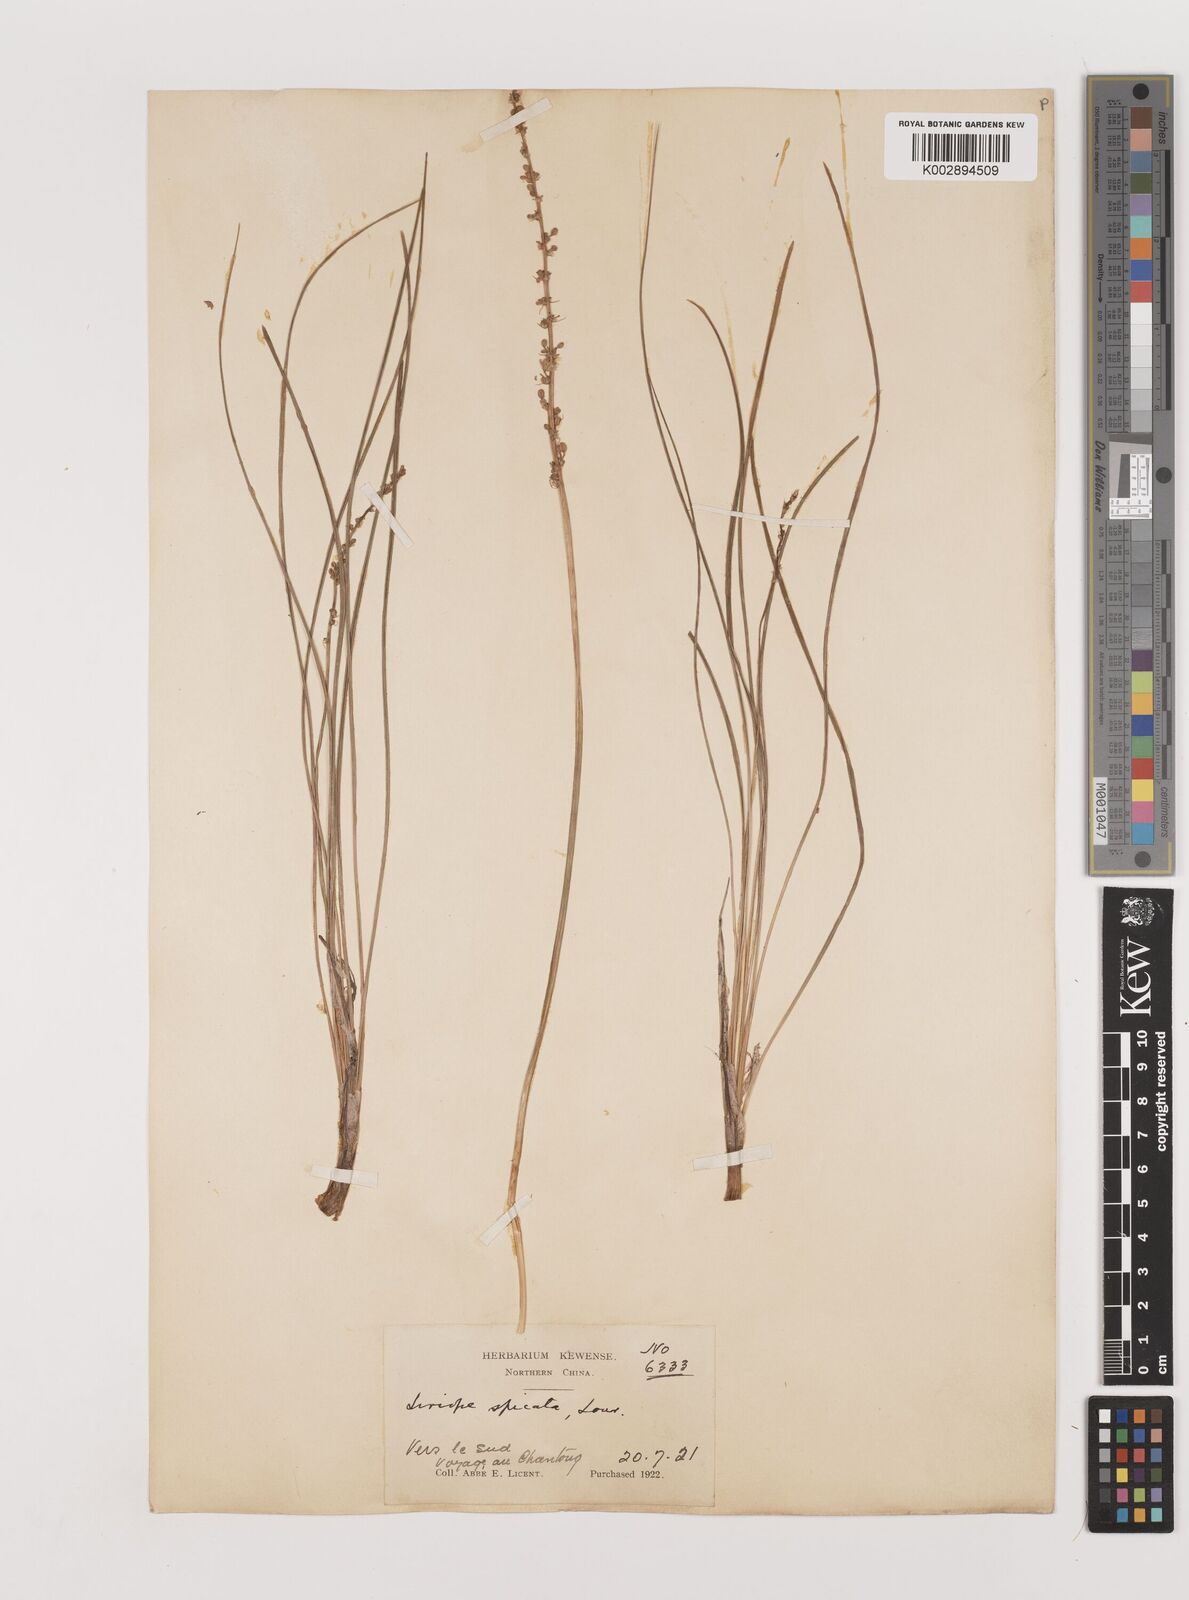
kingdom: Plantae
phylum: Tracheophyta
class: Liliopsida
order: Asparagales
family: Asparagaceae
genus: Liriope
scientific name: Liriope spicata
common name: Creeping liriope
